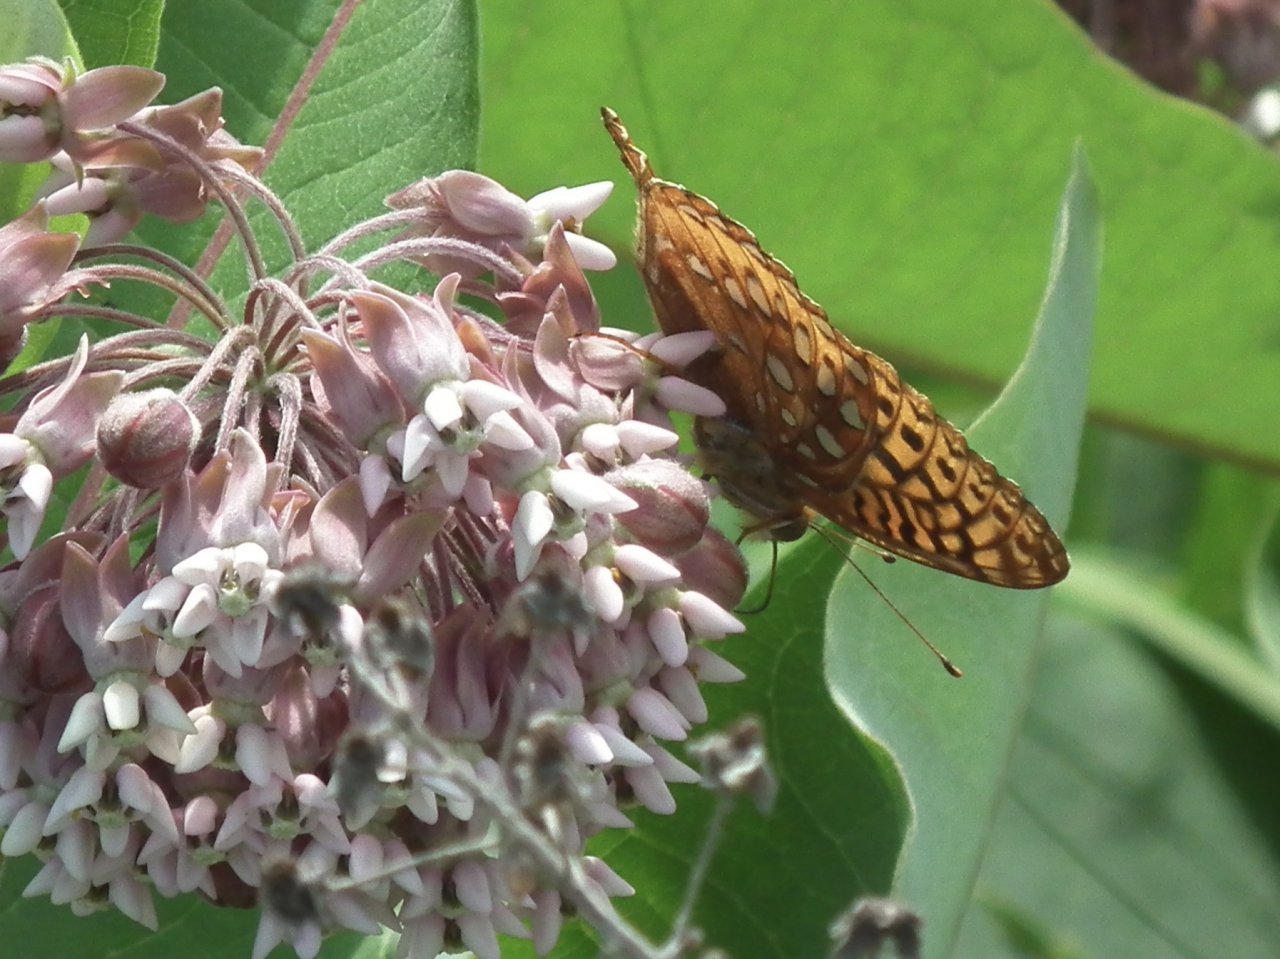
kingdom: Animalia
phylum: Arthropoda
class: Insecta
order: Lepidoptera
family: Nymphalidae
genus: Speyeria
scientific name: Speyeria cybele
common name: Great Spangled Fritillary
